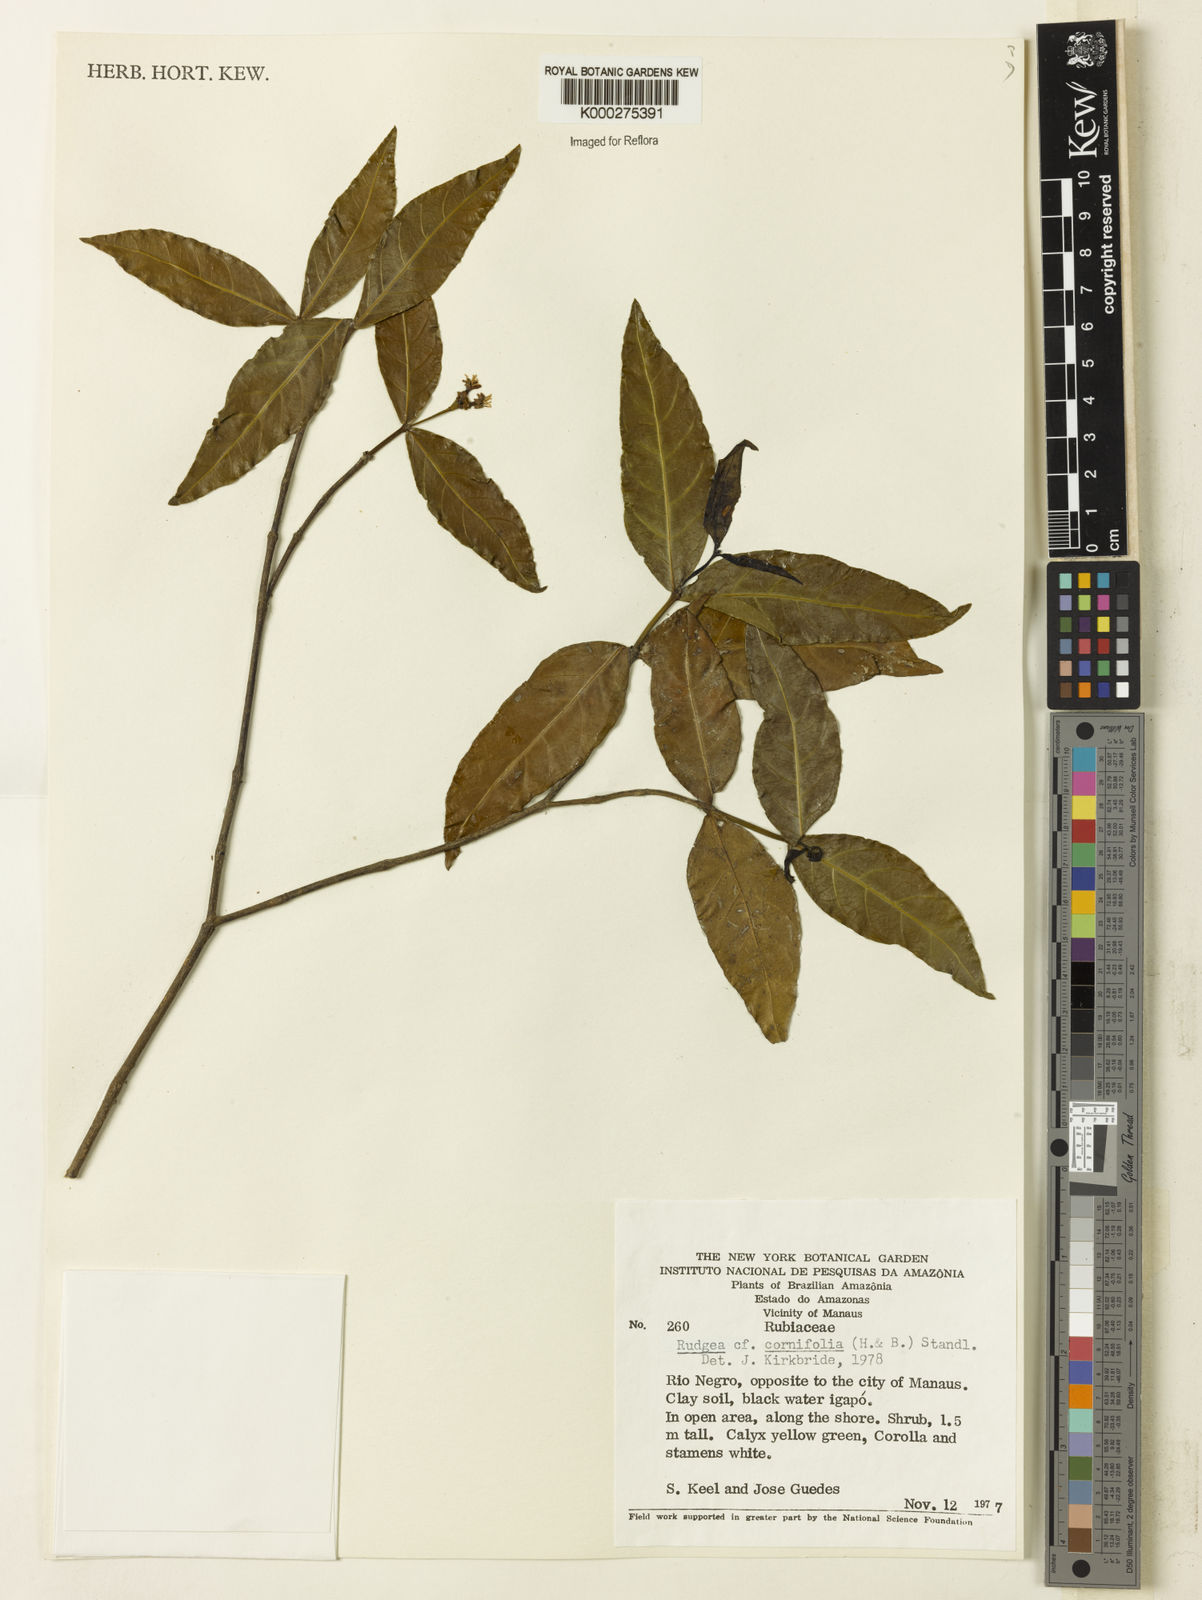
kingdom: Plantae
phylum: Tracheophyta
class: Magnoliopsida
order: Gentianales
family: Rubiaceae
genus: Rudgea
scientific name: Rudgea cornifolia
